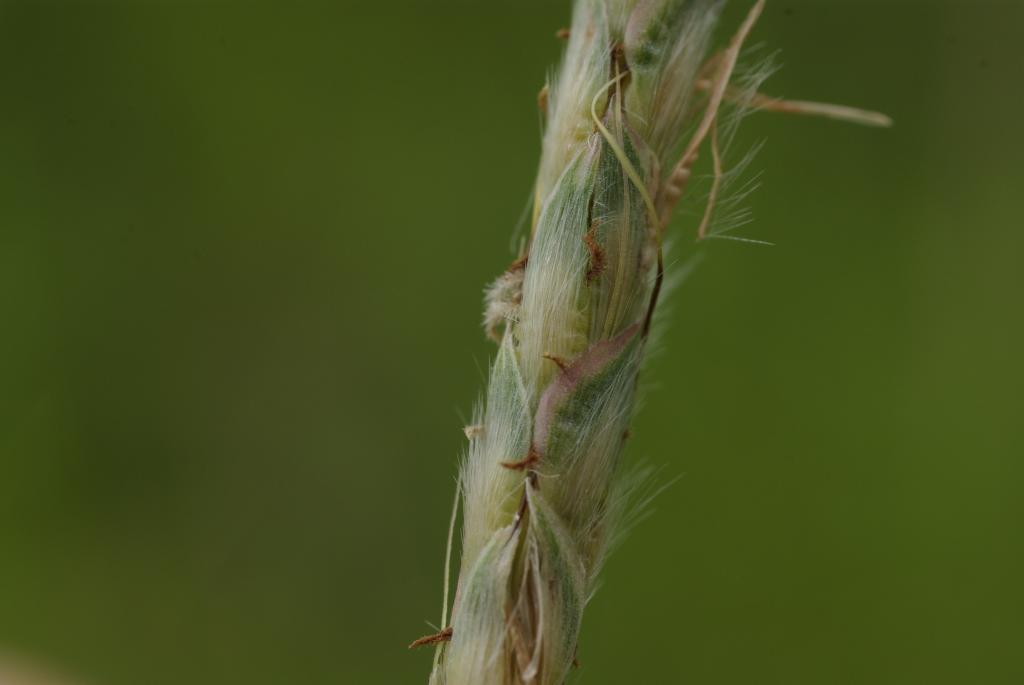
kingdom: Plantae
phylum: Tracheophyta
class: Liliopsida
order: Poales
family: Poaceae
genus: Ischaemum
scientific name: Ischaemum barbatum
